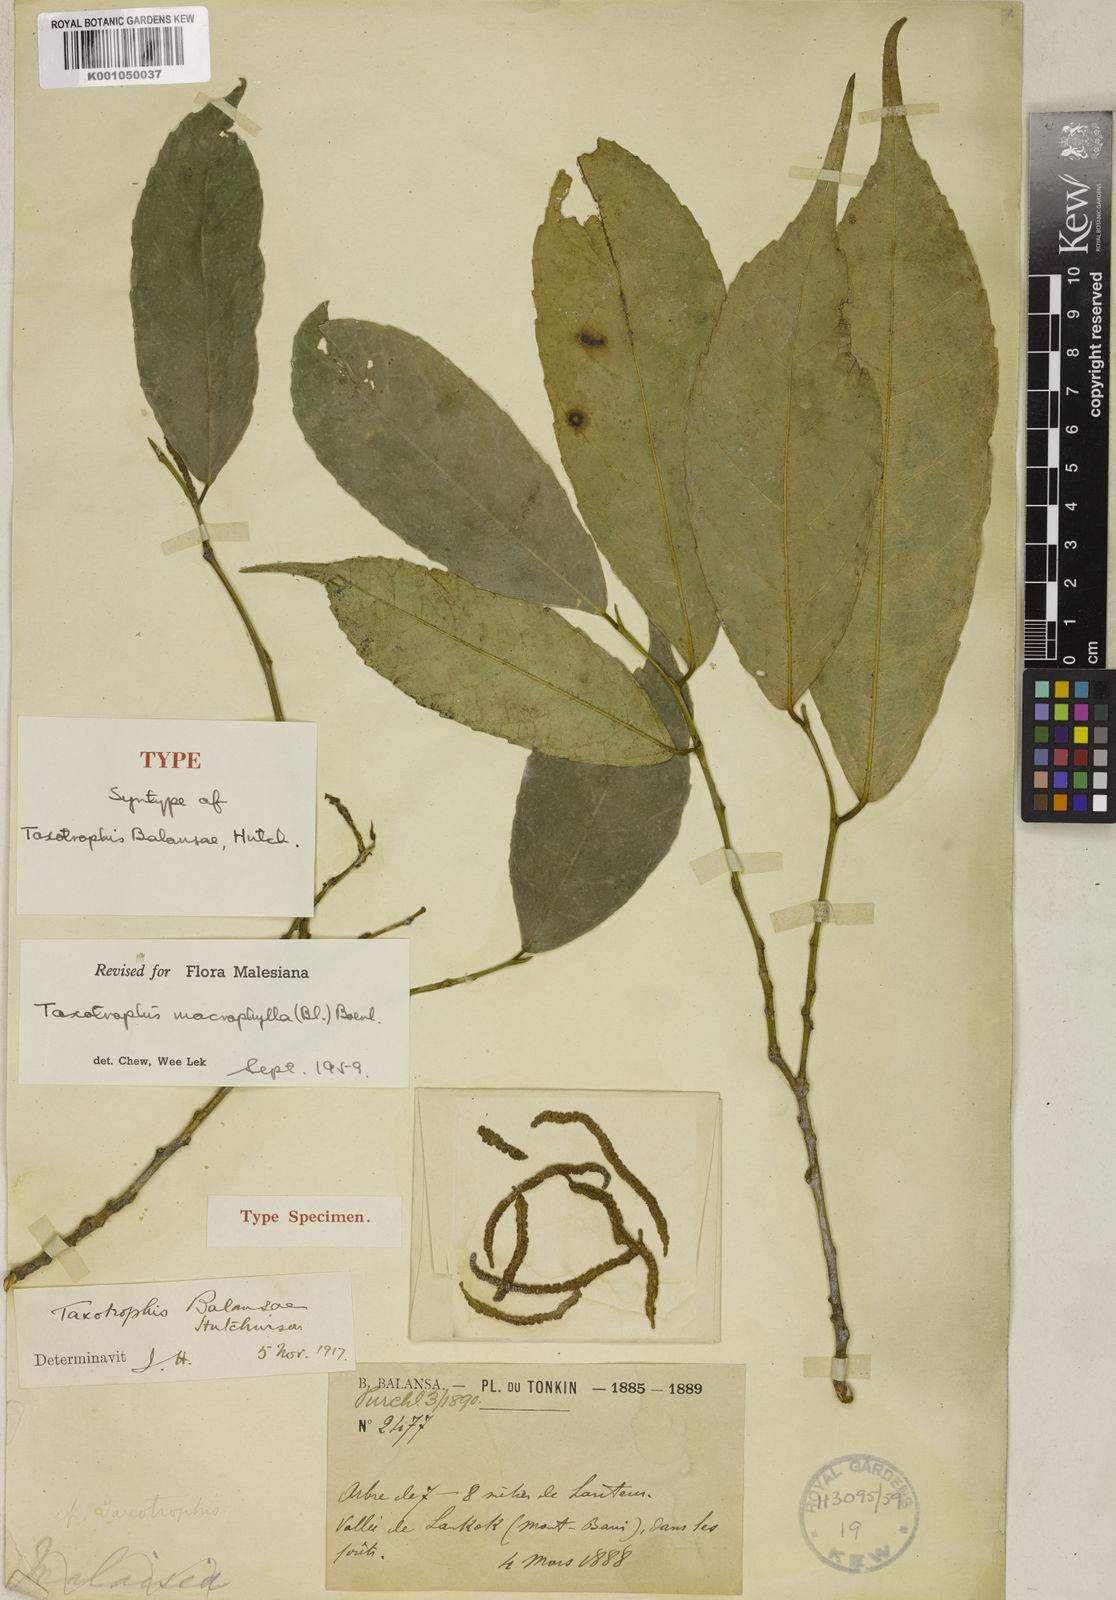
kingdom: Plantae
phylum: Tracheophyta
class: Magnoliopsida
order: Rosales
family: Moraceae
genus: Taxotrophis
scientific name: Taxotrophis macrophylla
